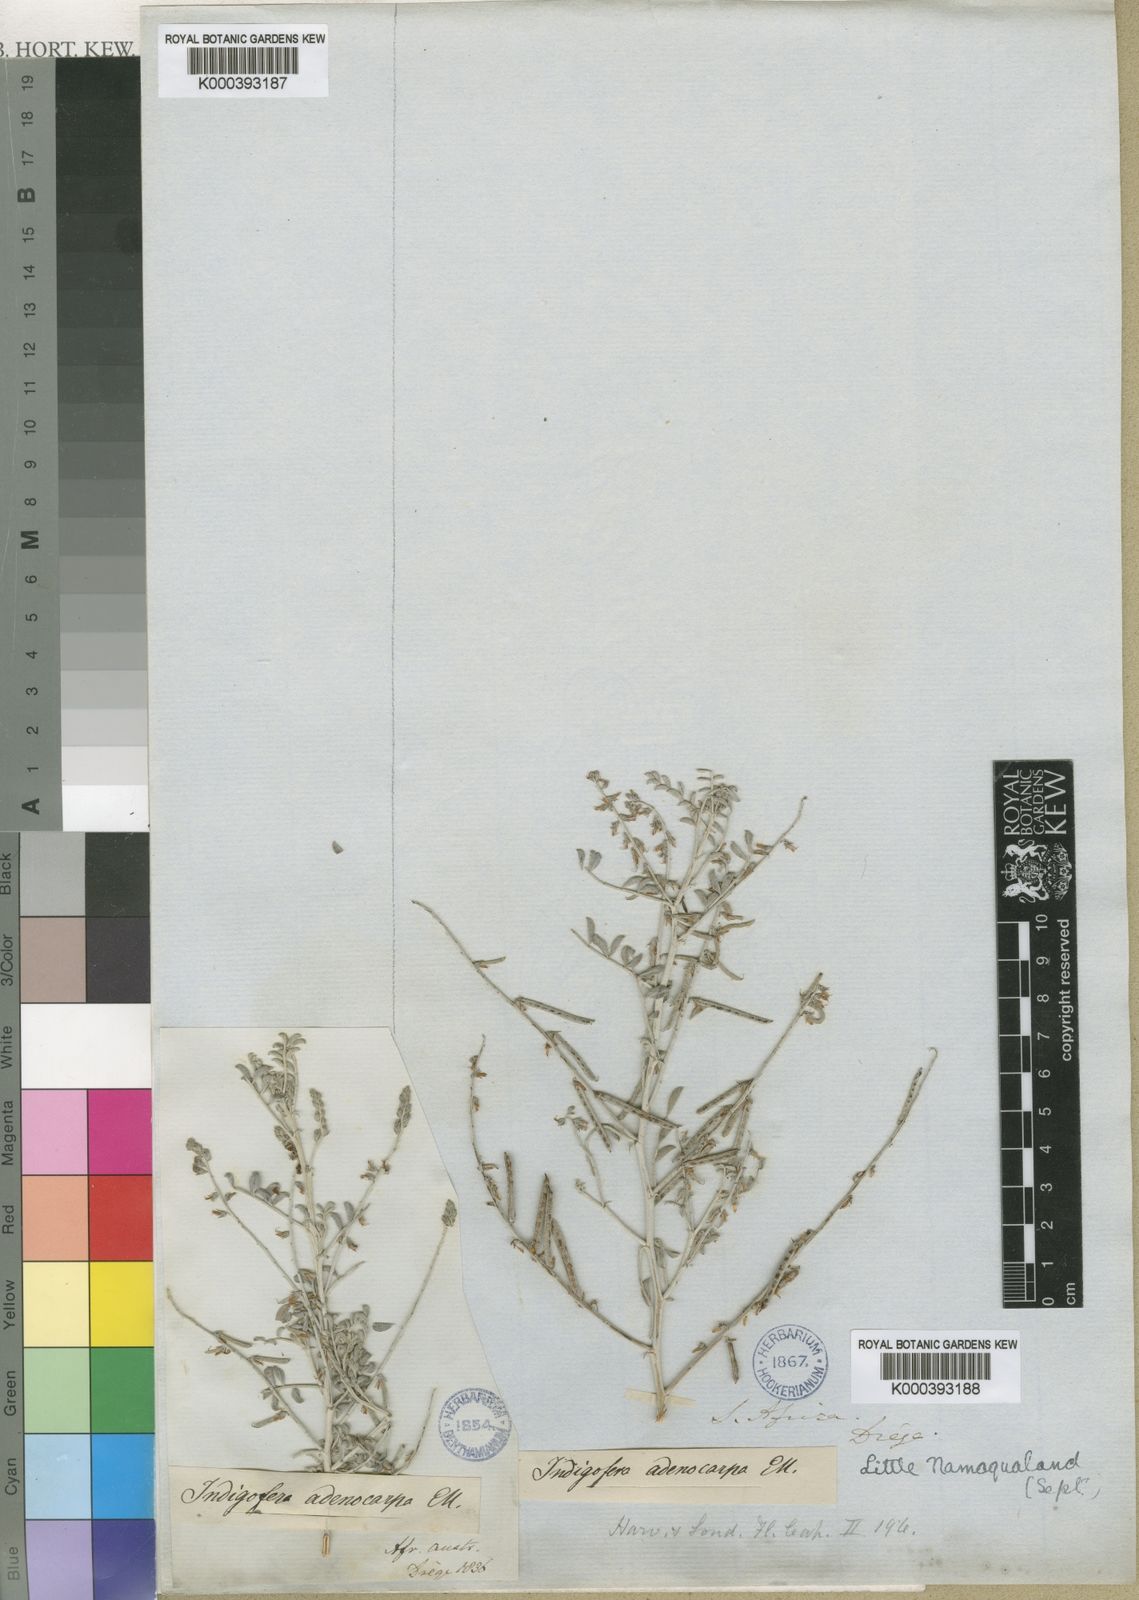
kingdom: Plantae
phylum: Tracheophyta
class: Magnoliopsida
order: Fabales
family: Fabaceae
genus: Indigofera
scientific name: Indigofera adenocarpa
